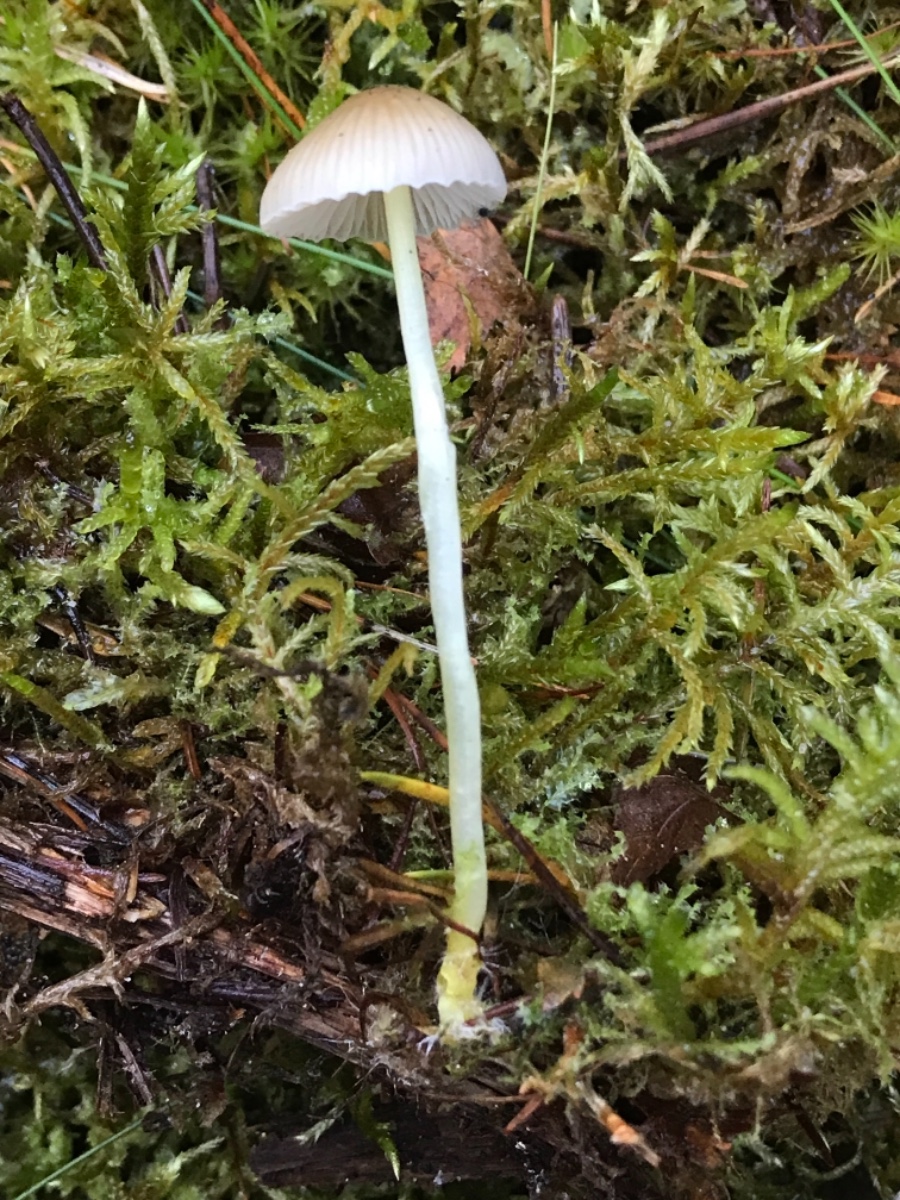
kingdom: Fungi
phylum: Basidiomycota
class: Agaricomycetes
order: Agaricales
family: Mycenaceae
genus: Mycena
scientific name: Mycena epipterygia
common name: gulstokket huesvamp
